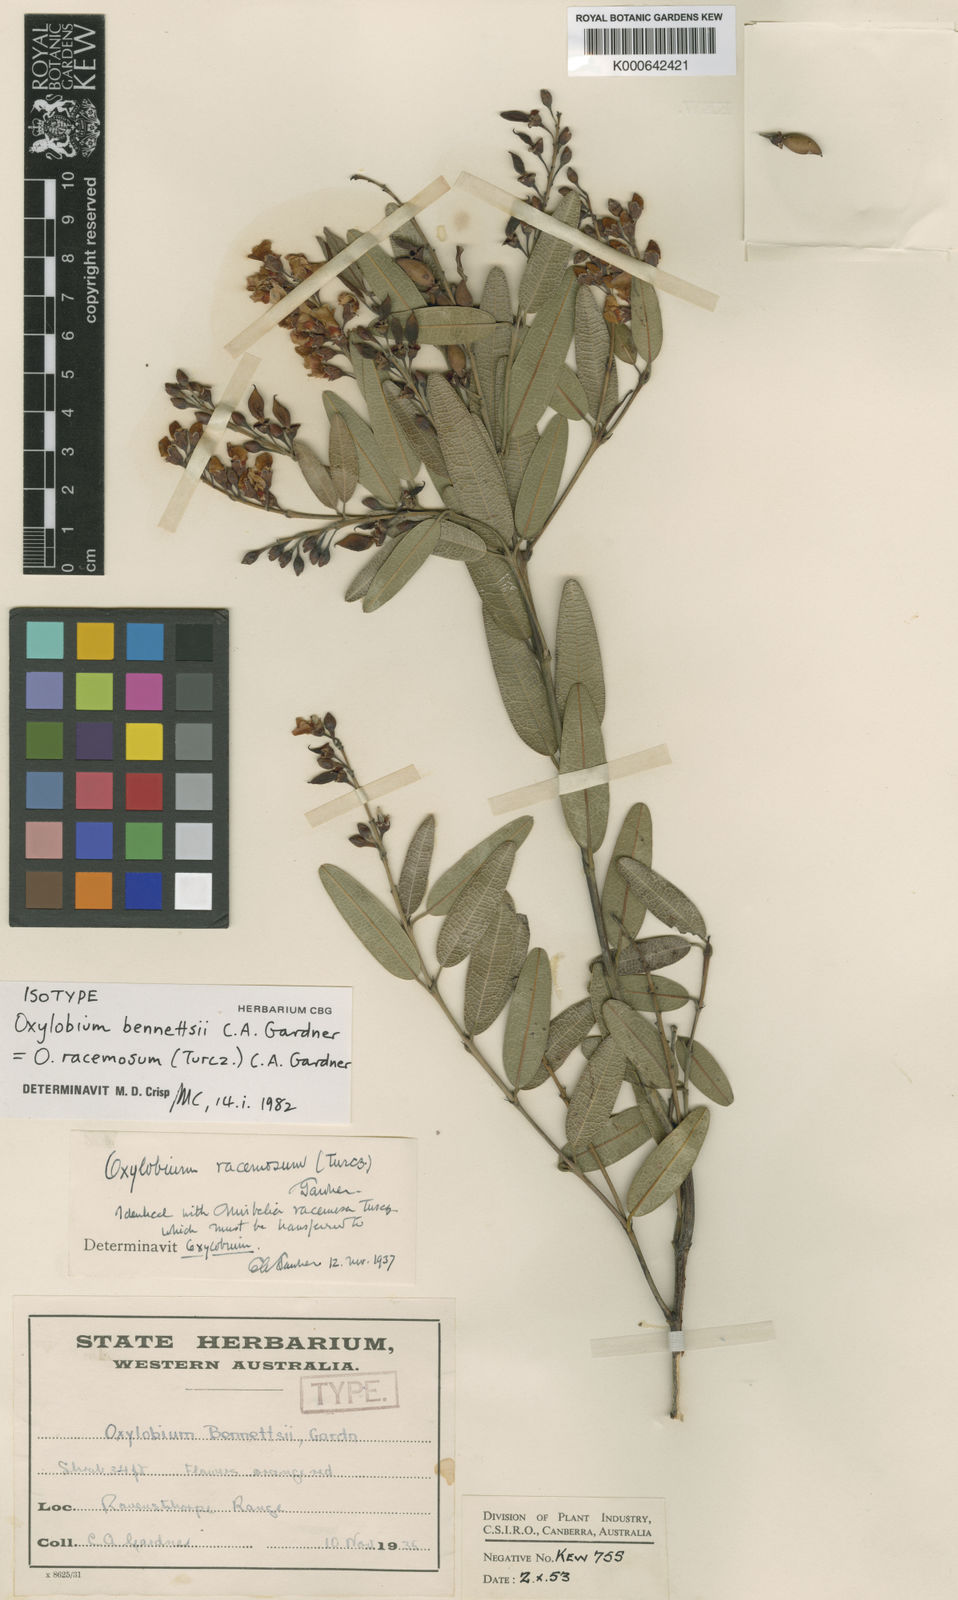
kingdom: Plantae
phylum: Tracheophyta
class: Magnoliopsida
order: Fabales
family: Fabaceae
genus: Gastrolobium
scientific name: Gastrolobium racemosum
